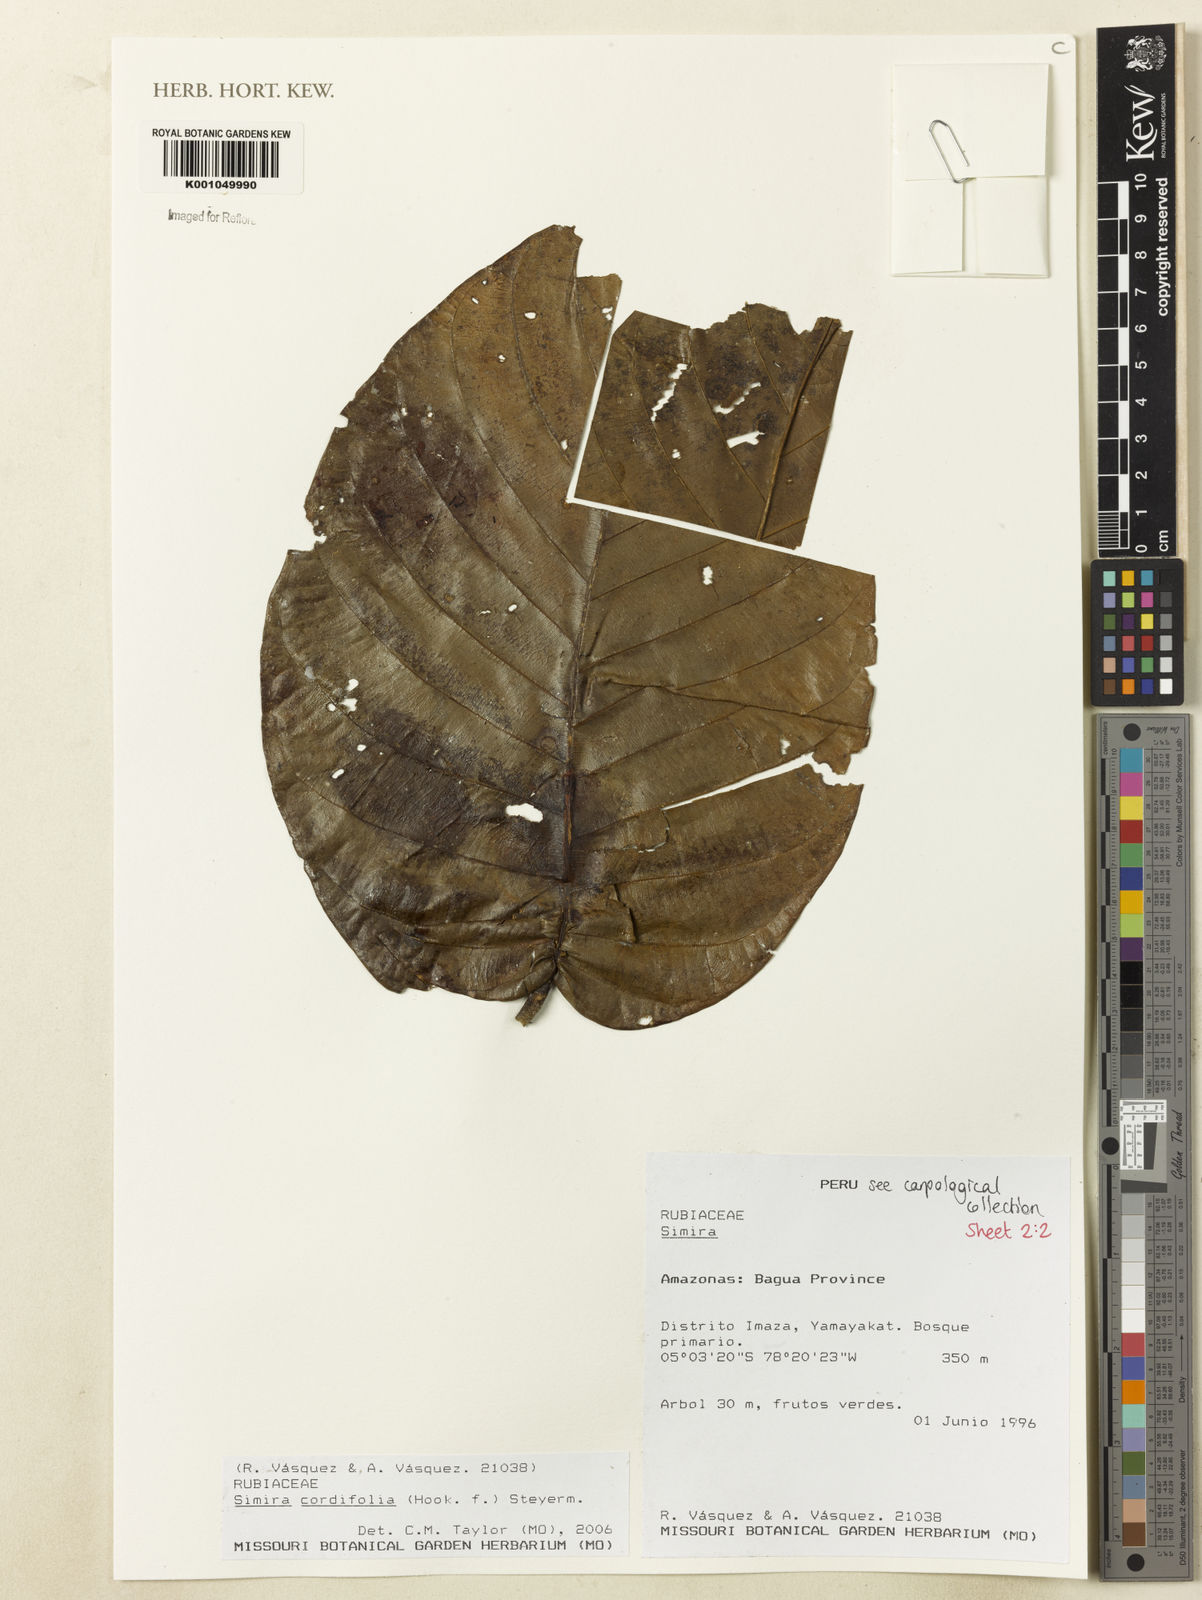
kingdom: Plantae
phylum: Tracheophyta
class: Magnoliopsida
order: Gentianales
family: Rubiaceae
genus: Simira
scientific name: Simira
